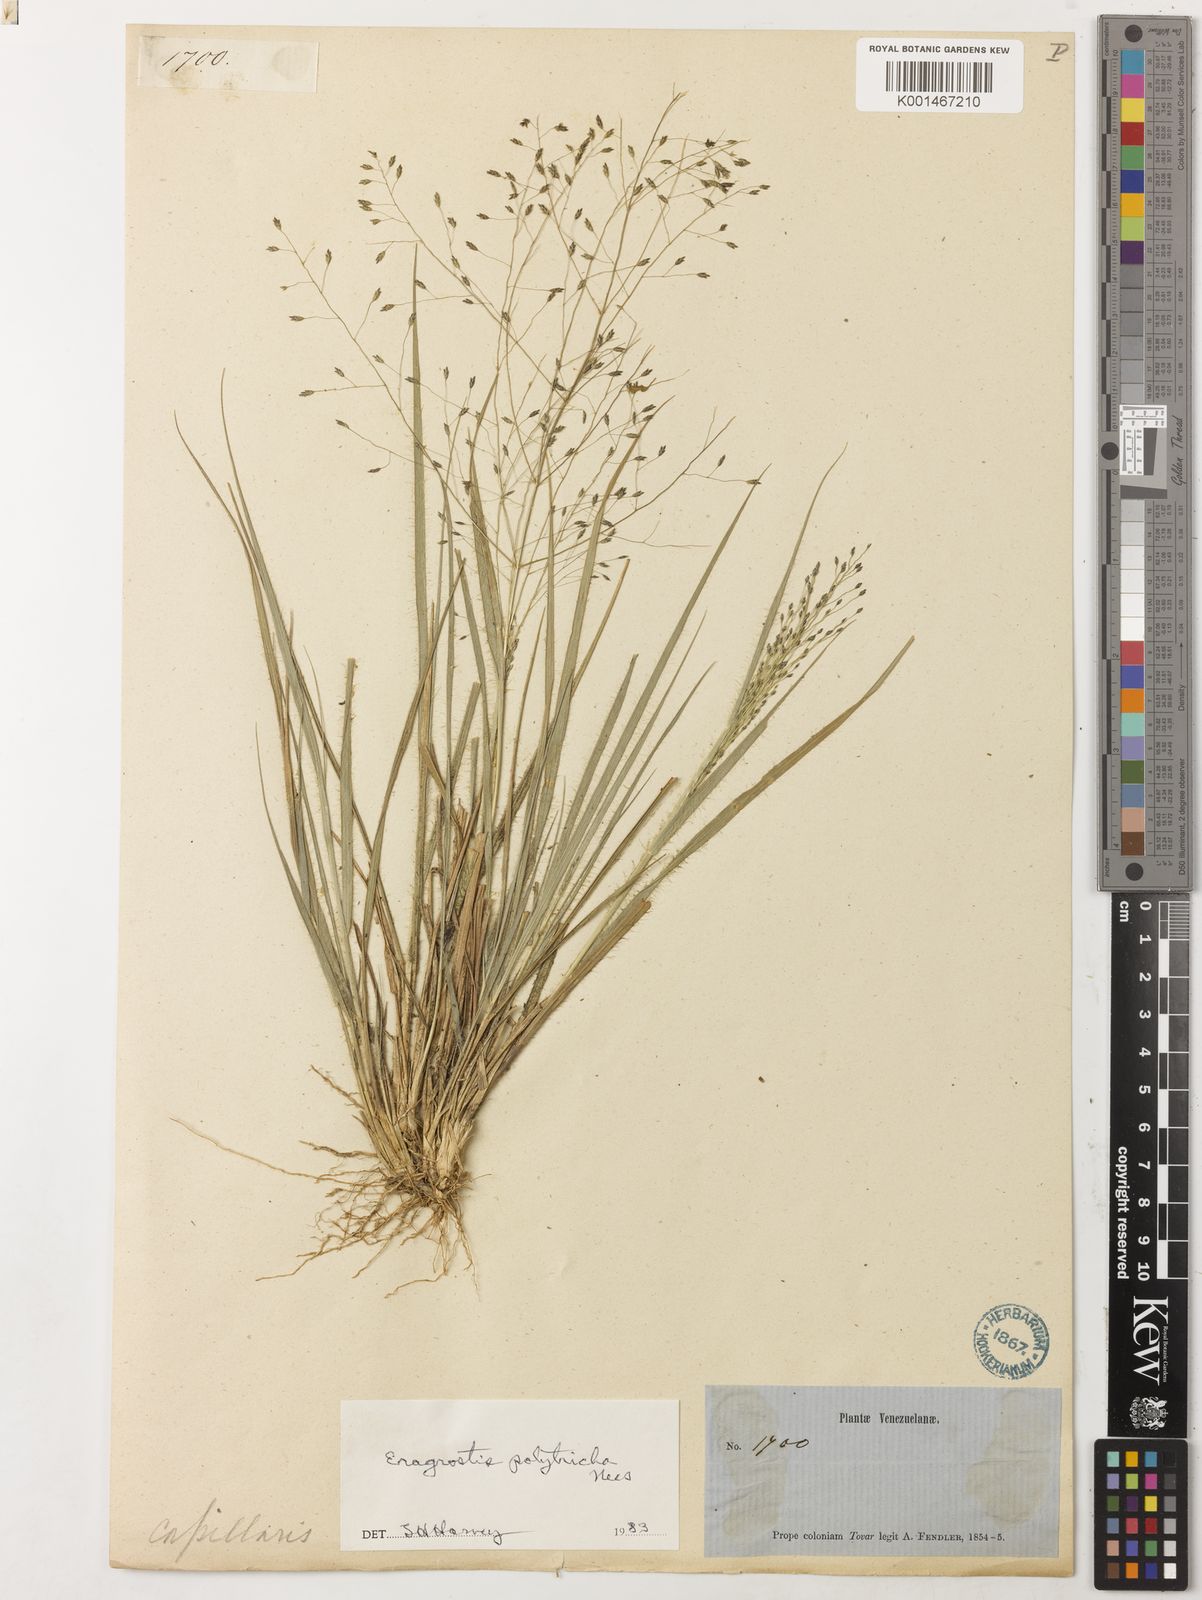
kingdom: Plantae
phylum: Tracheophyta
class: Liliopsida
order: Poales
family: Poaceae
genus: Eragrostis
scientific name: Eragrostis polytricha
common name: Hairy-sheath love grass
